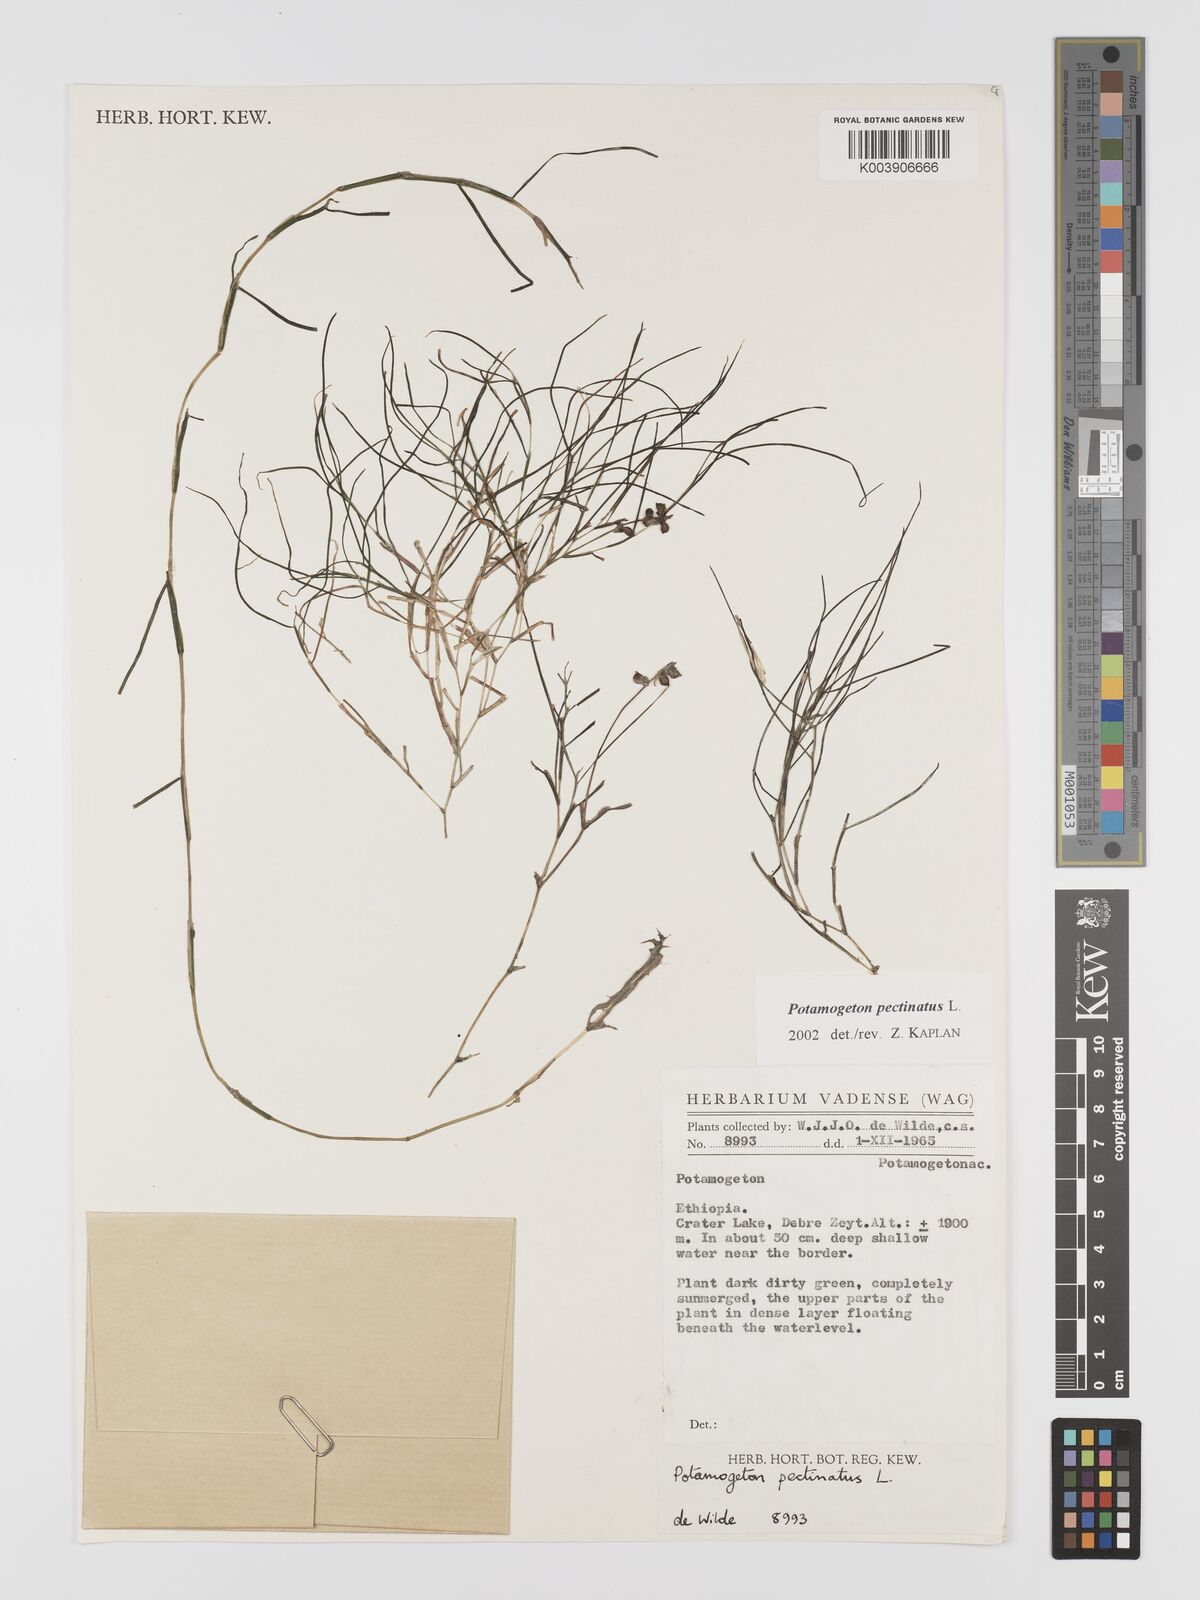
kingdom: Plantae
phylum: Tracheophyta
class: Liliopsida
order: Alismatales
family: Potamogetonaceae
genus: Stuckenia
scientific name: Stuckenia pectinata
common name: Sago pondweed
